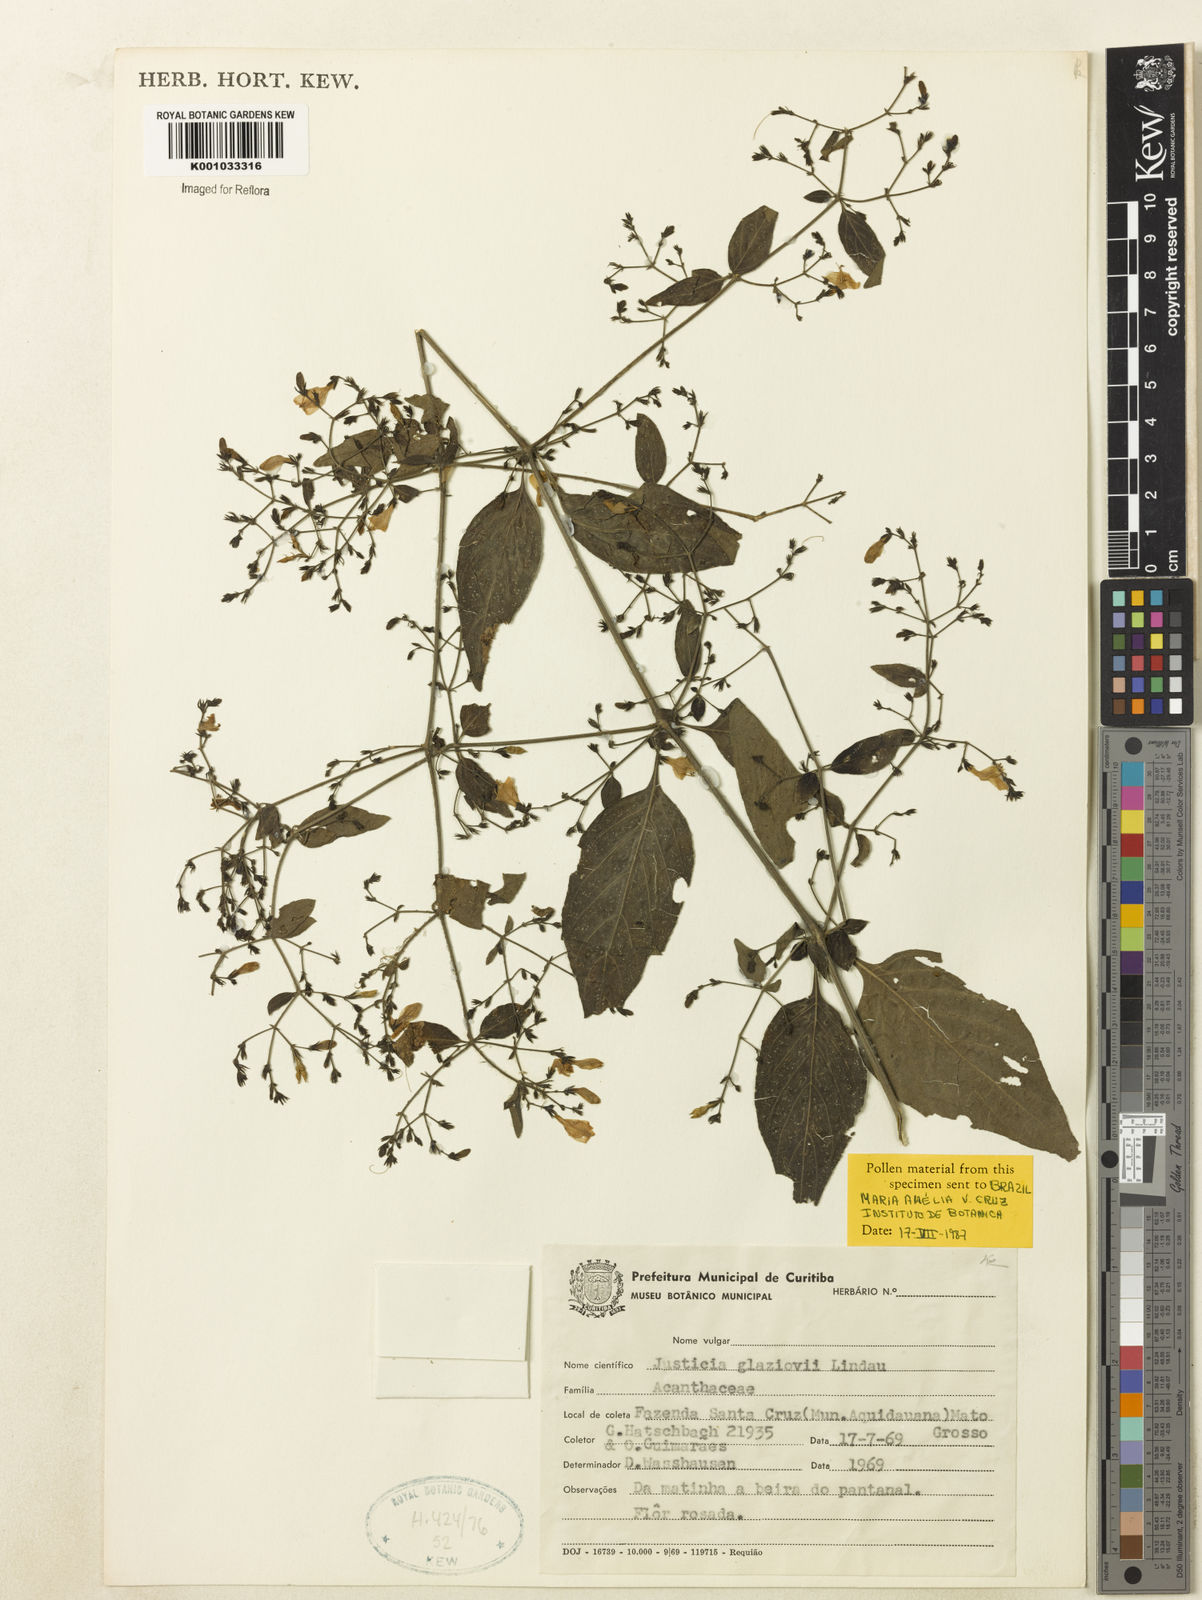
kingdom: Plantae
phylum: Tracheophyta
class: Magnoliopsida
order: Lamiales
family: Acanthaceae
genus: Justicia
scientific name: Justicia rubriflora
